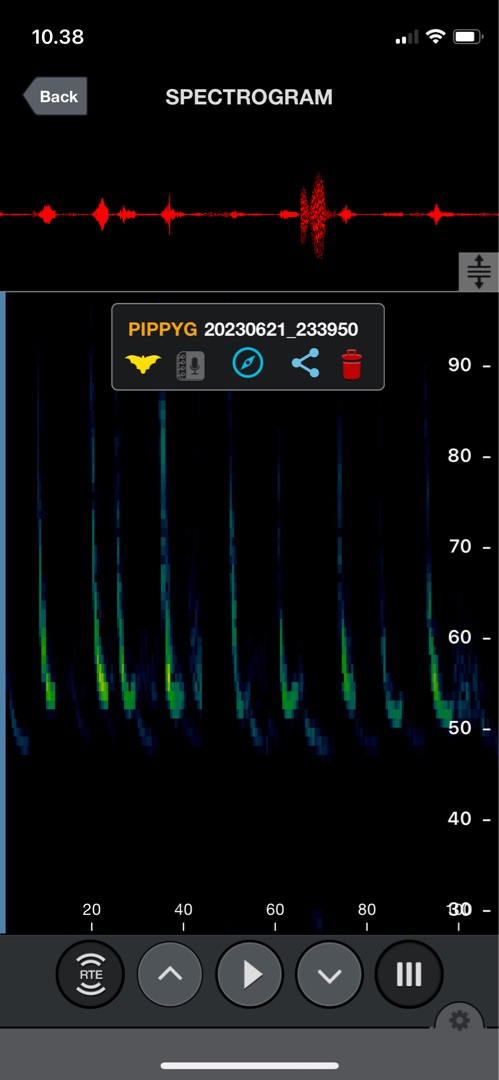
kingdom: Animalia
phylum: Chordata
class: Mammalia
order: Chiroptera
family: Vespertilionidae
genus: Pipistrellus
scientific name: Pipistrellus pygmaeus
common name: Dværgflagermus
